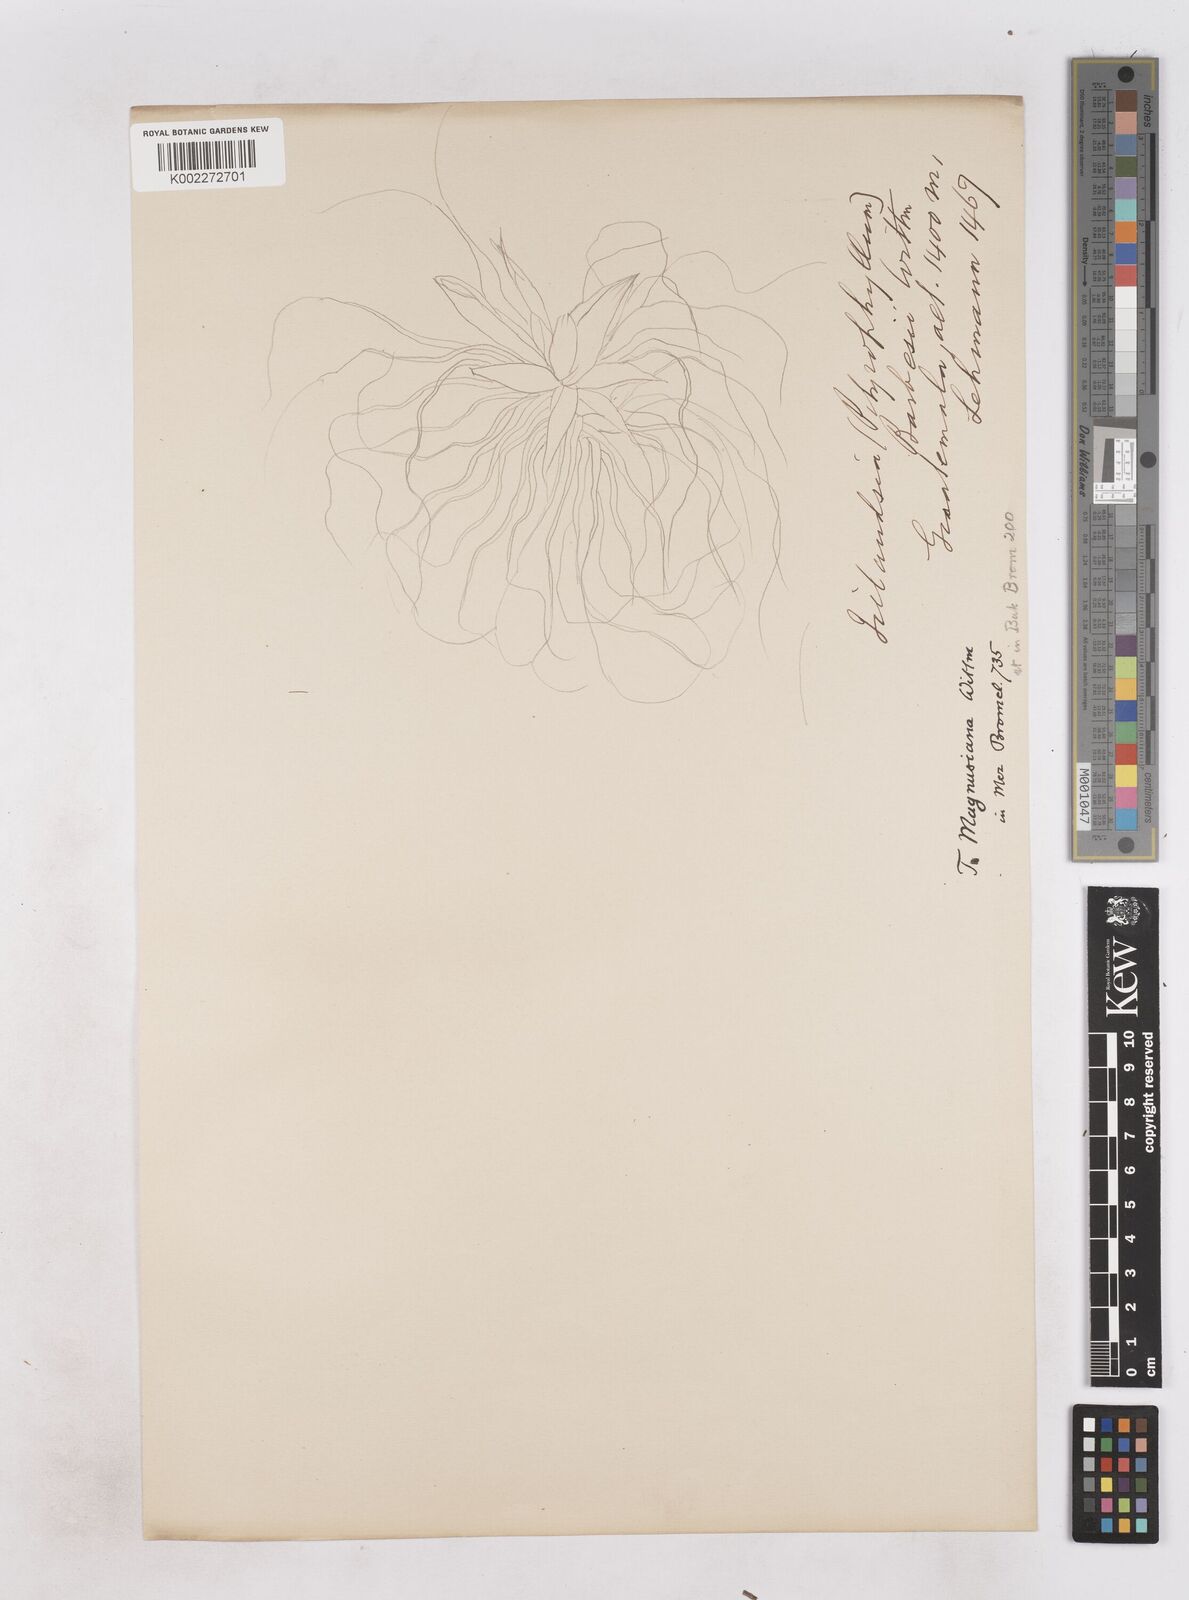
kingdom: Plantae
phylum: Tracheophyta
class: Liliopsida
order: Poales
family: Bromeliaceae
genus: Tillandsia
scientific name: Tillandsia magnusiana
